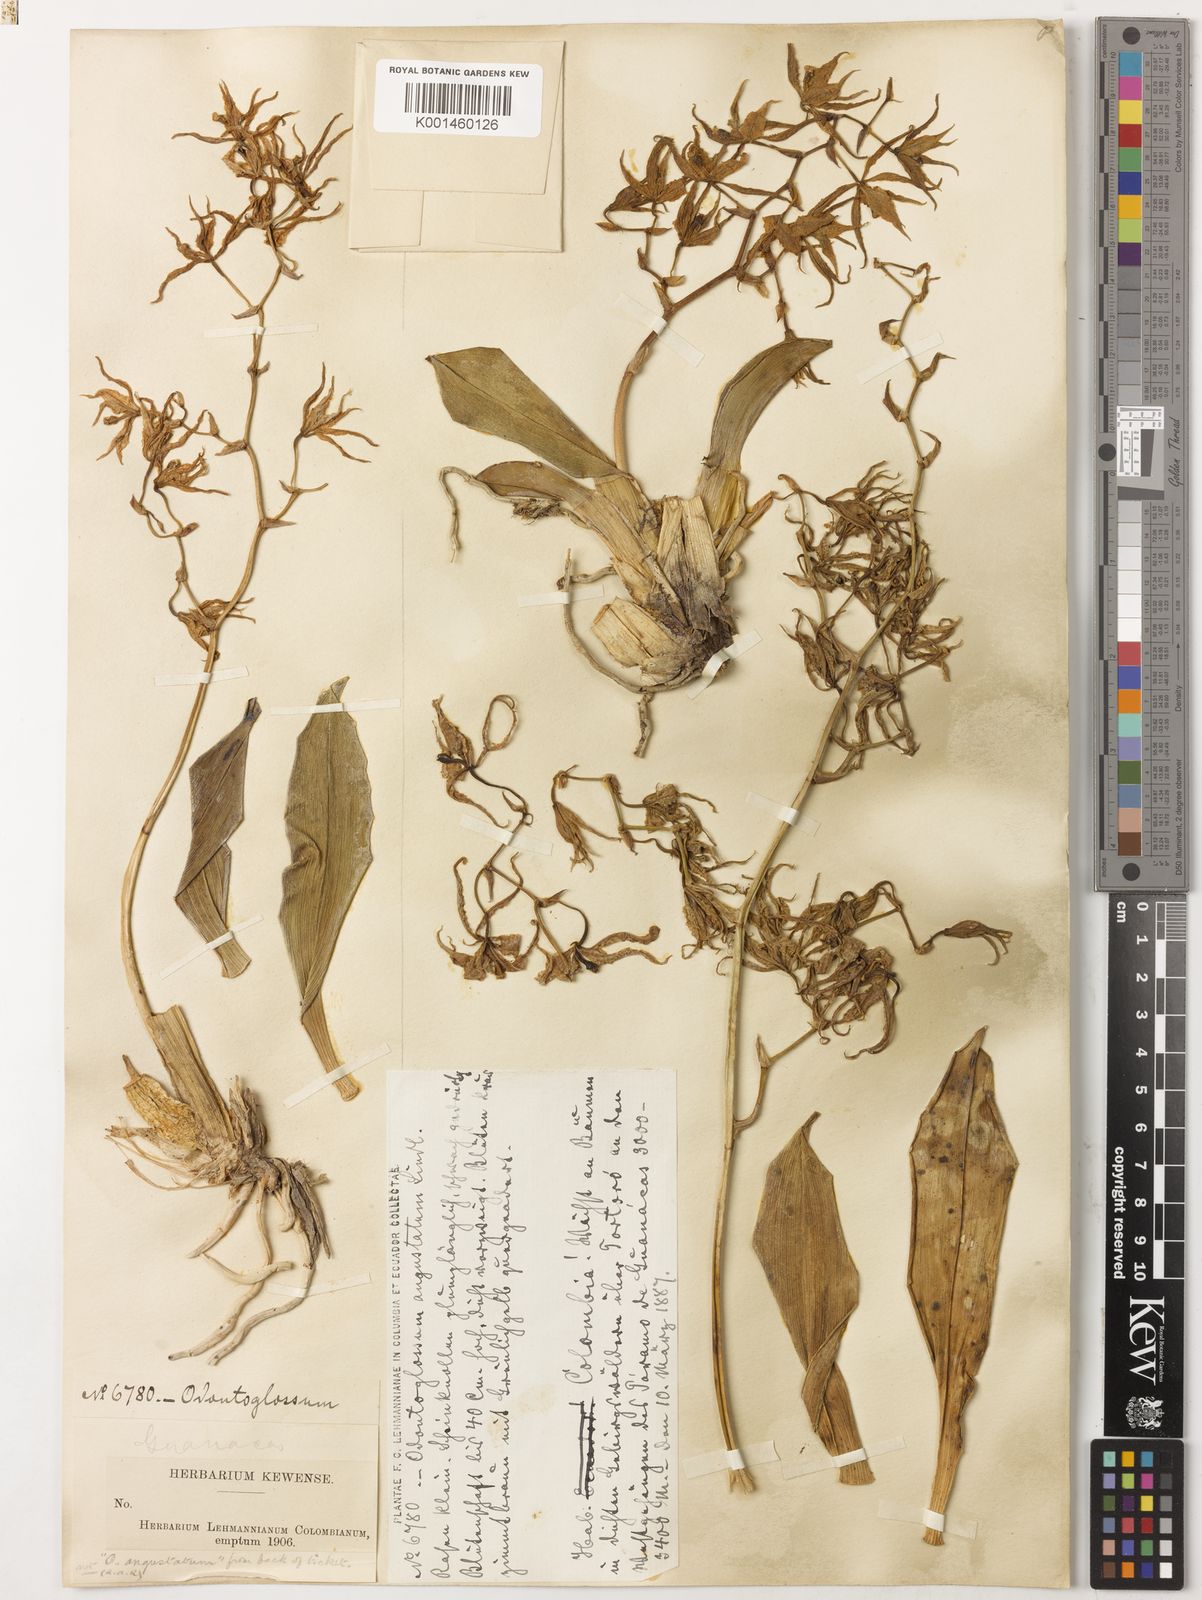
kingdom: Plantae
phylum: Tracheophyta
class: Liliopsida
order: Asparagales
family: Orchidaceae
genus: Cyrtochilum
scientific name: Cyrtochilum
